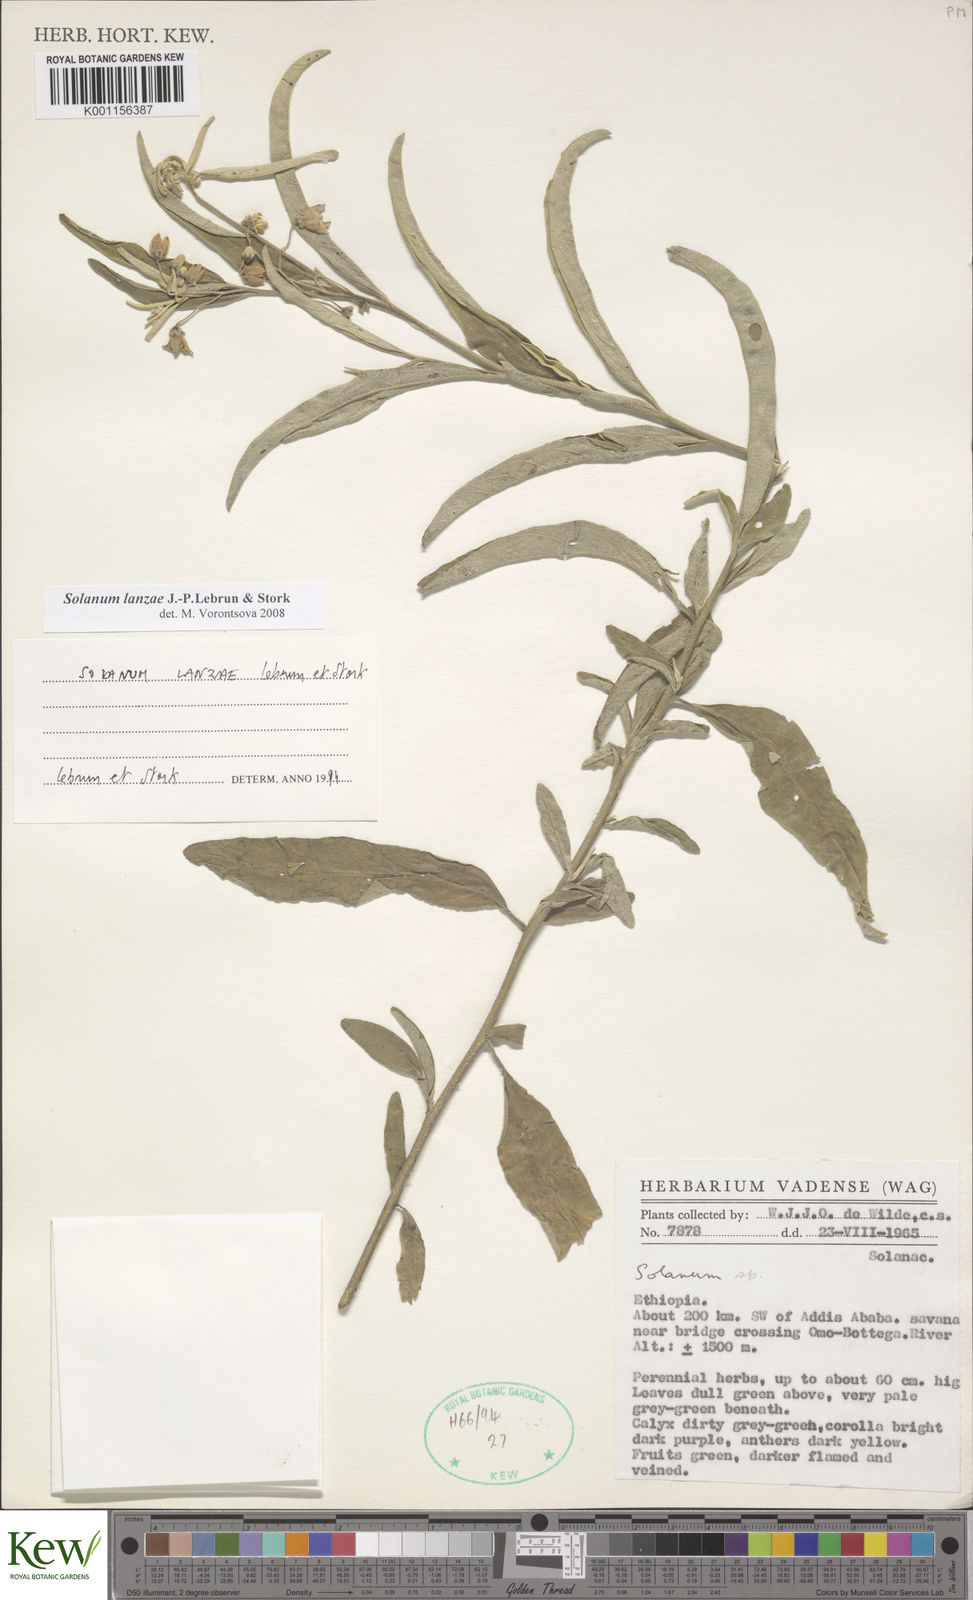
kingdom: Plantae
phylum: Tracheophyta
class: Magnoliopsida
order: Solanales
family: Solanaceae
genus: Solanum
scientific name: Solanum lanzae
